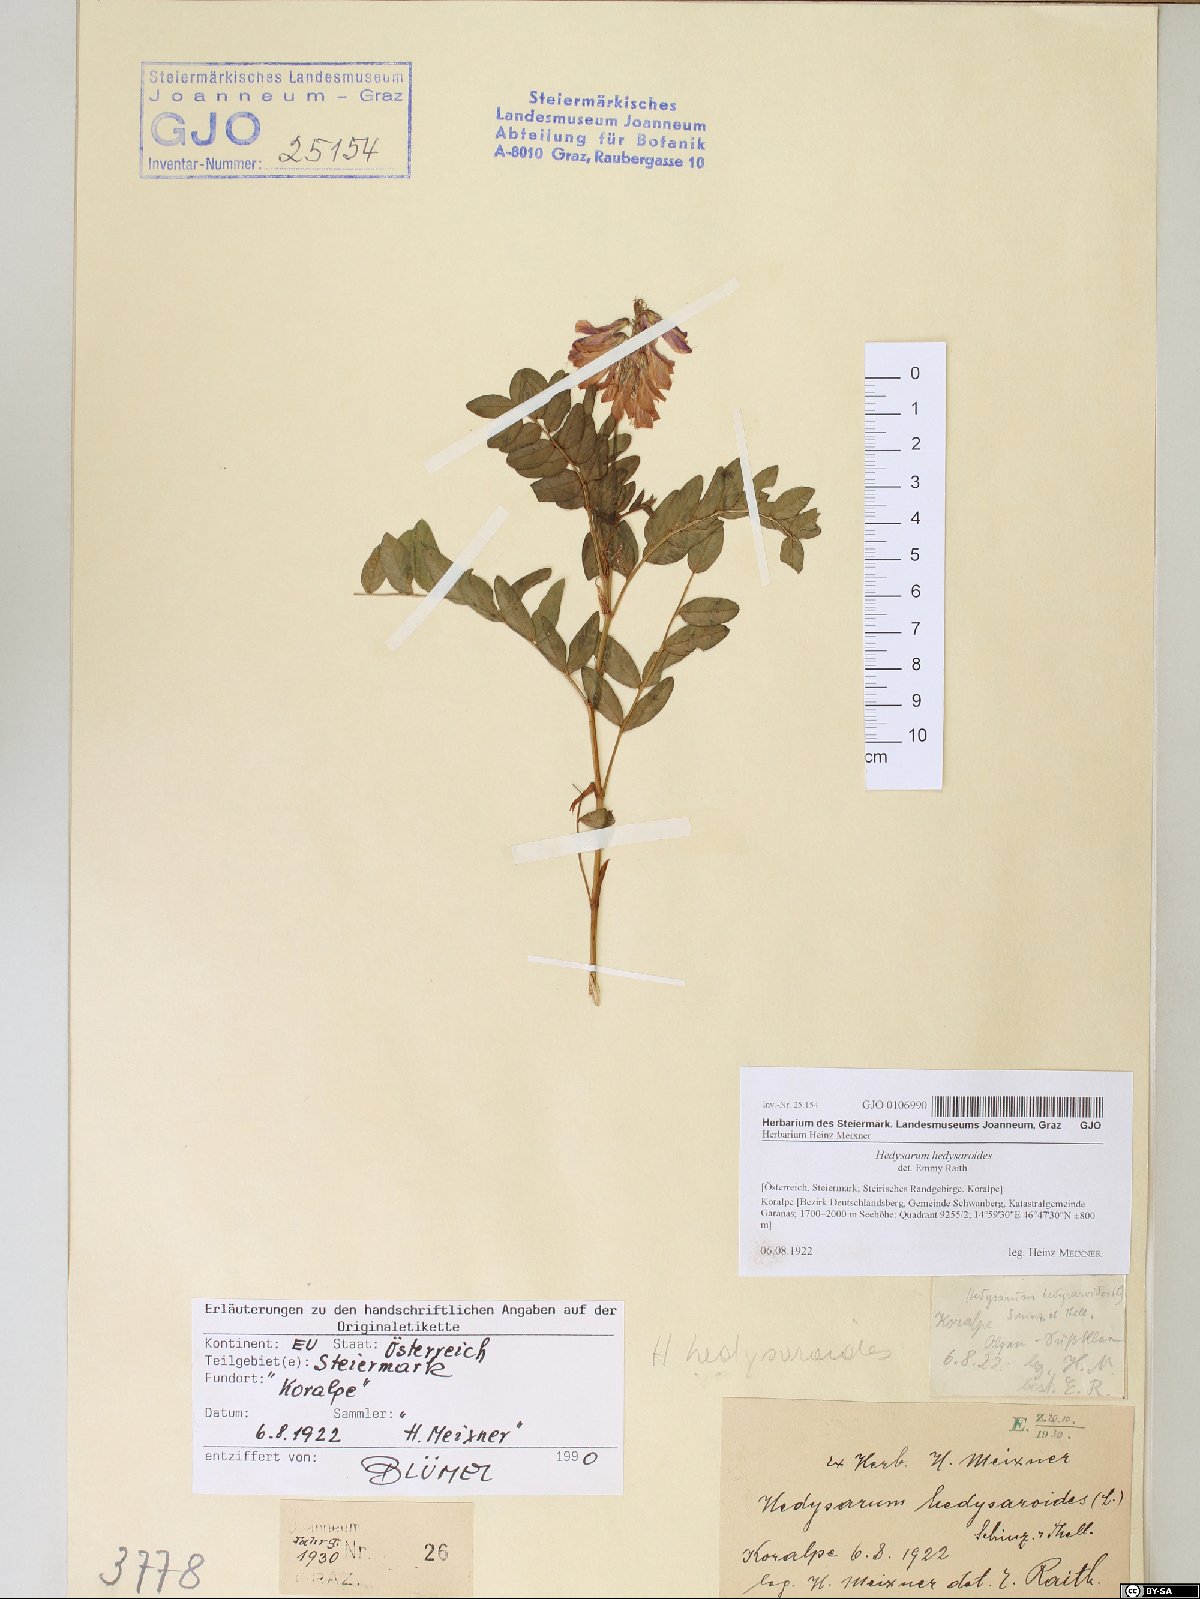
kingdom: Plantae
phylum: Tracheophyta
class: Magnoliopsida
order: Fabales
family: Fabaceae
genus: Hedysarum
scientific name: Hedysarum hedysaroides
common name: Alpine french-honeysuckle
